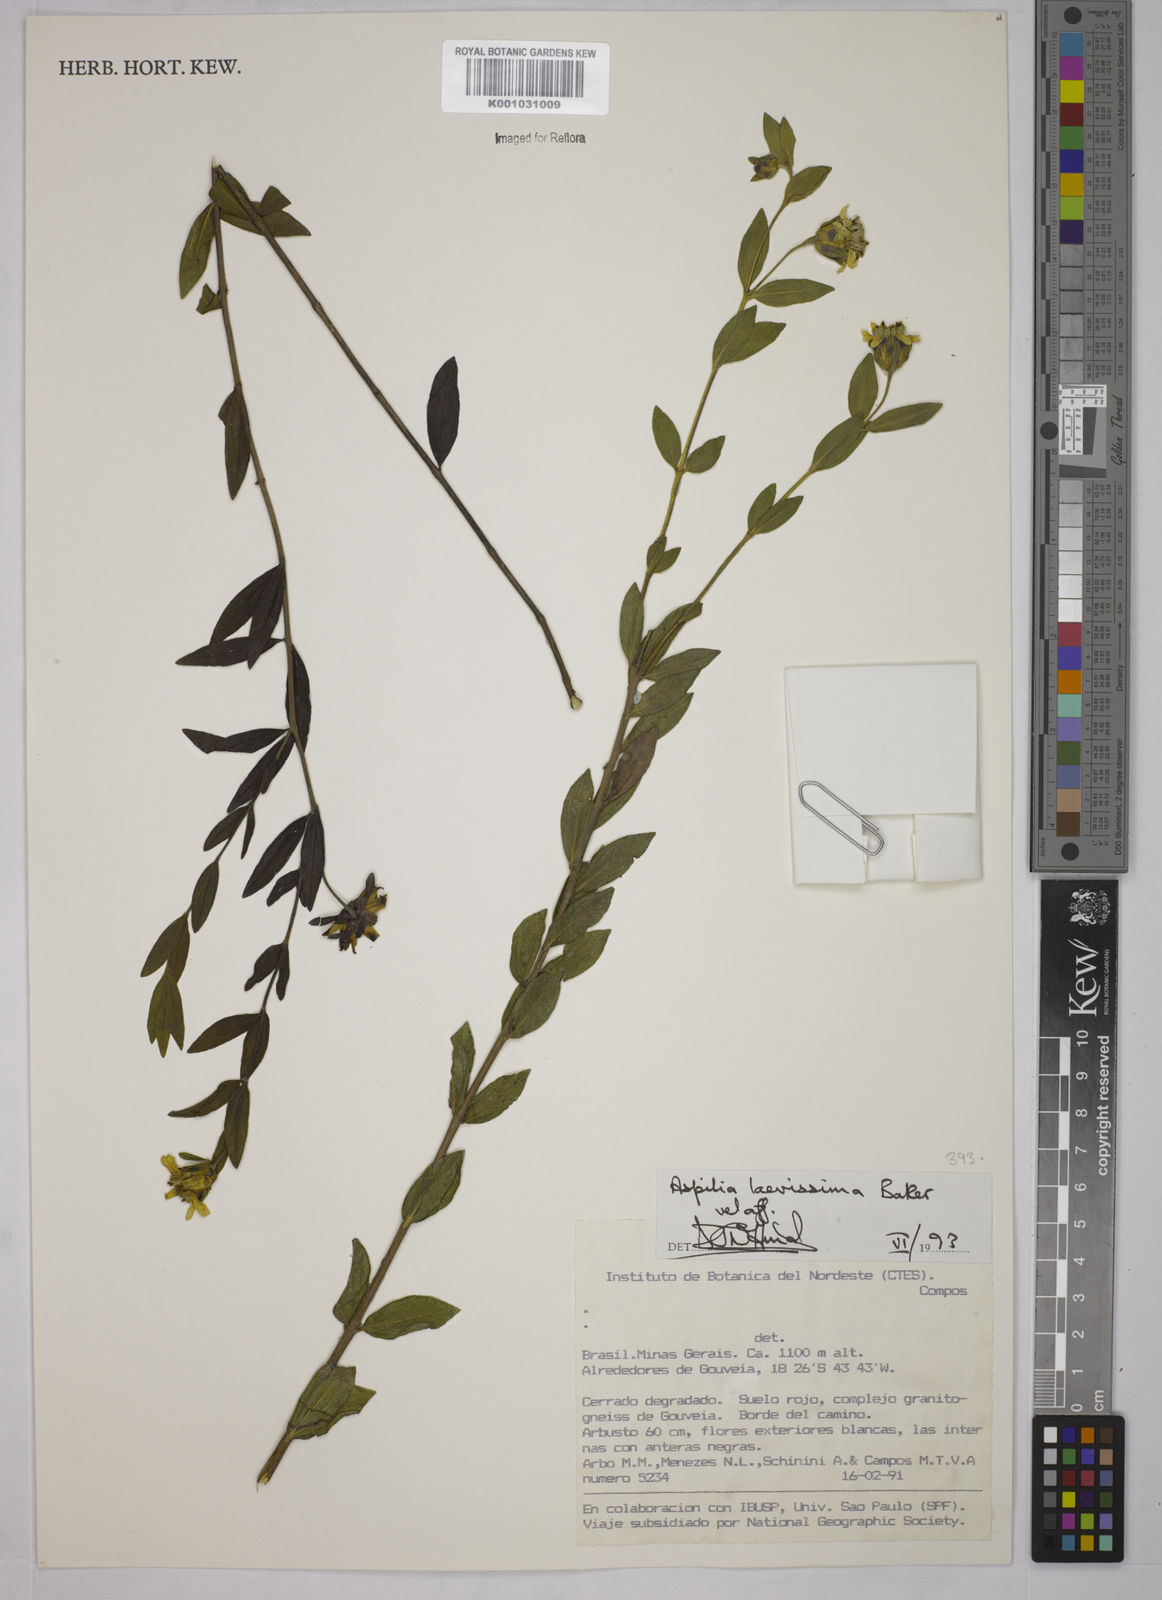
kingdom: Plantae
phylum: Tracheophyta
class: Magnoliopsida
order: Asterales
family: Asteraceae
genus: Wedelia
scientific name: Wedelia laevissima
